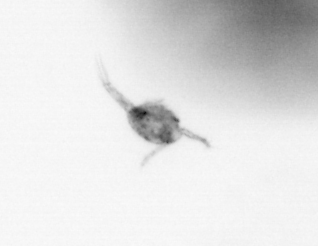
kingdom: Animalia
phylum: Arthropoda
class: Copepoda
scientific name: Copepoda
